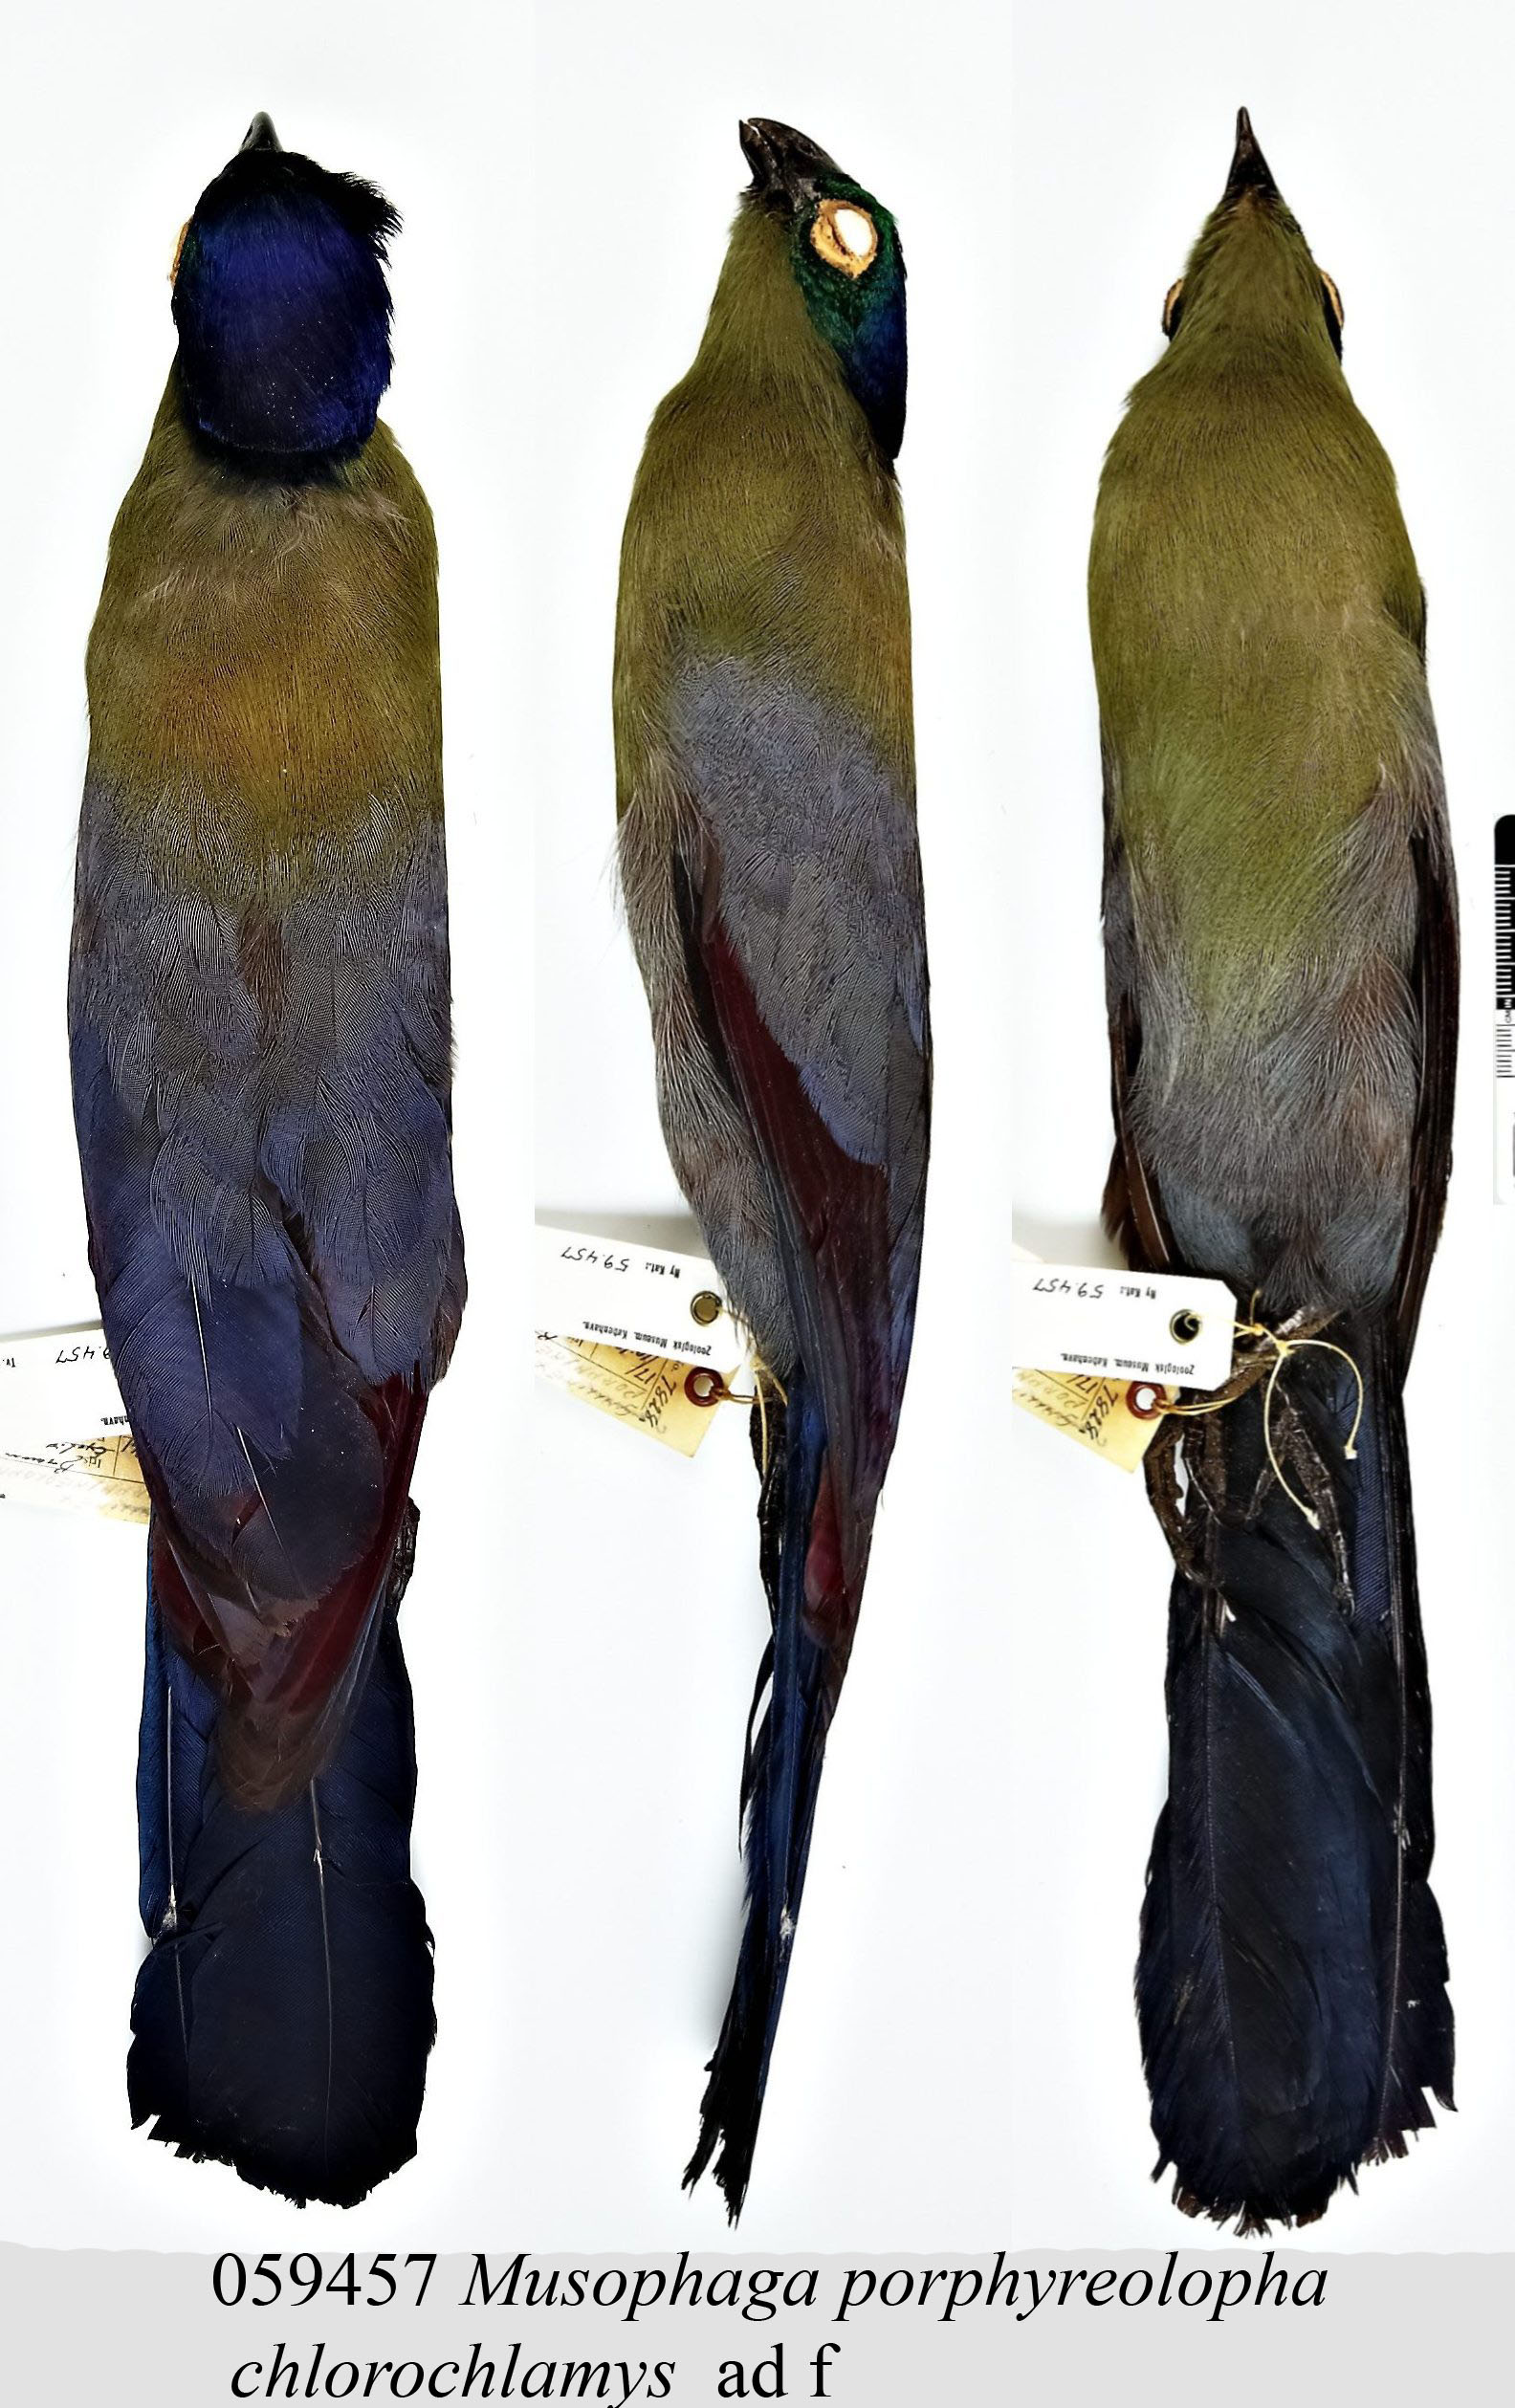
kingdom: Animalia
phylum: Chordata
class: Aves
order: Musophagiformes
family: Musophagidae
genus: Tauraco
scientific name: Tauraco porphyreolophus
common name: Purple-crested turaco
